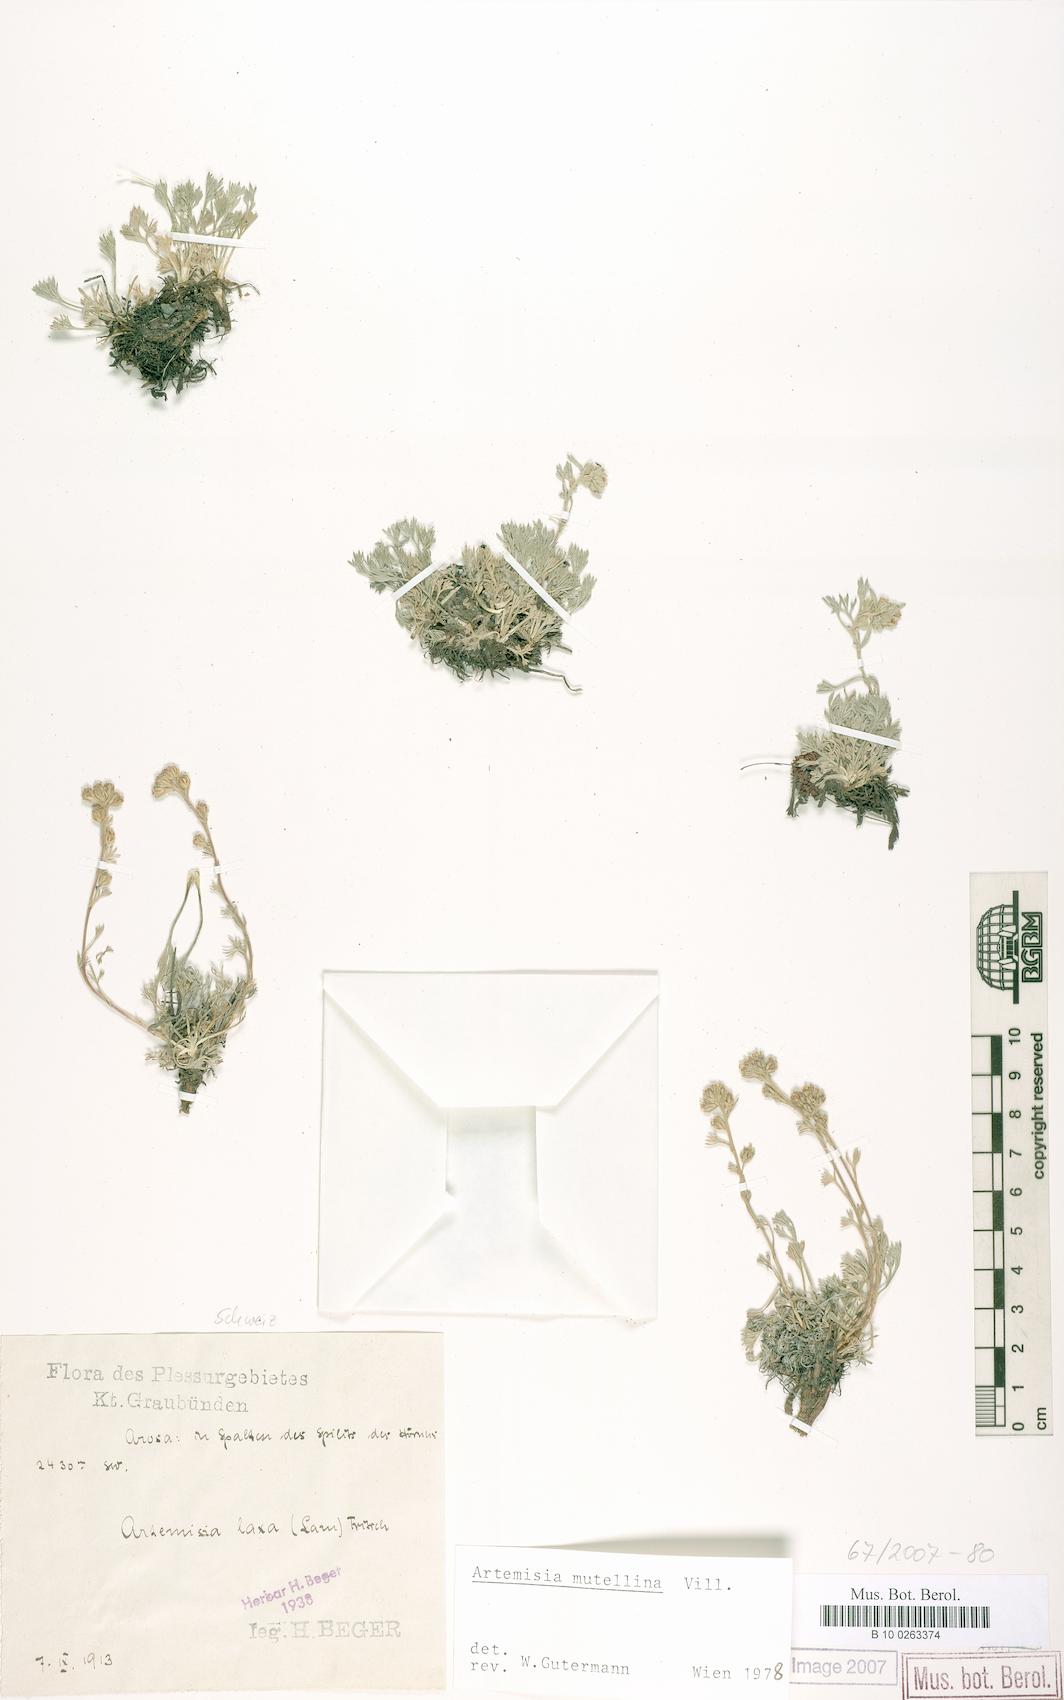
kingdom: Plantae
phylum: Tracheophyta
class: Magnoliopsida
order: Asterales
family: Asteraceae
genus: Artemisia
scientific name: Artemisia mutellina
